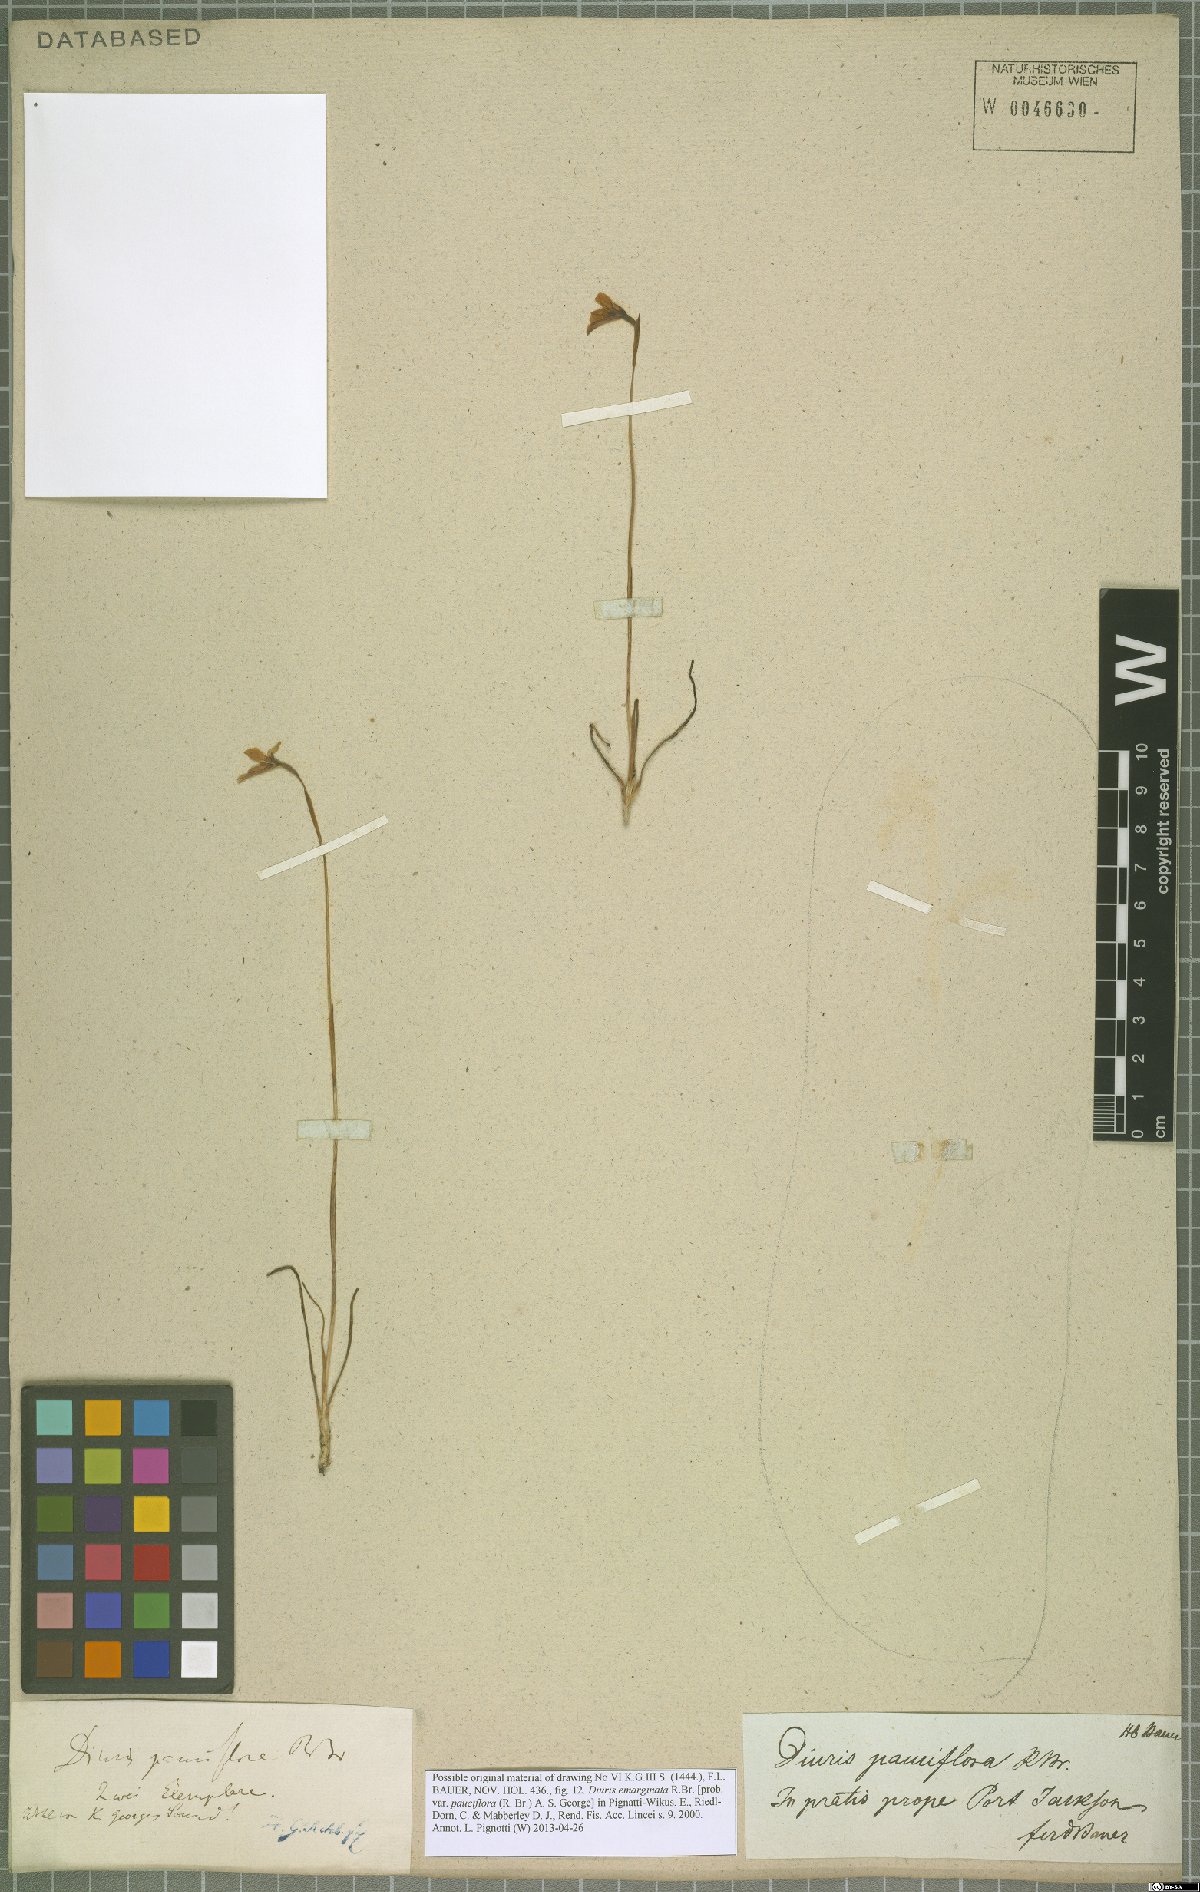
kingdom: Plantae
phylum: Tracheophyta
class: Liliopsida
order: Asparagales
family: Orchidaceae
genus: Diuris
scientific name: Diuris emarginata
